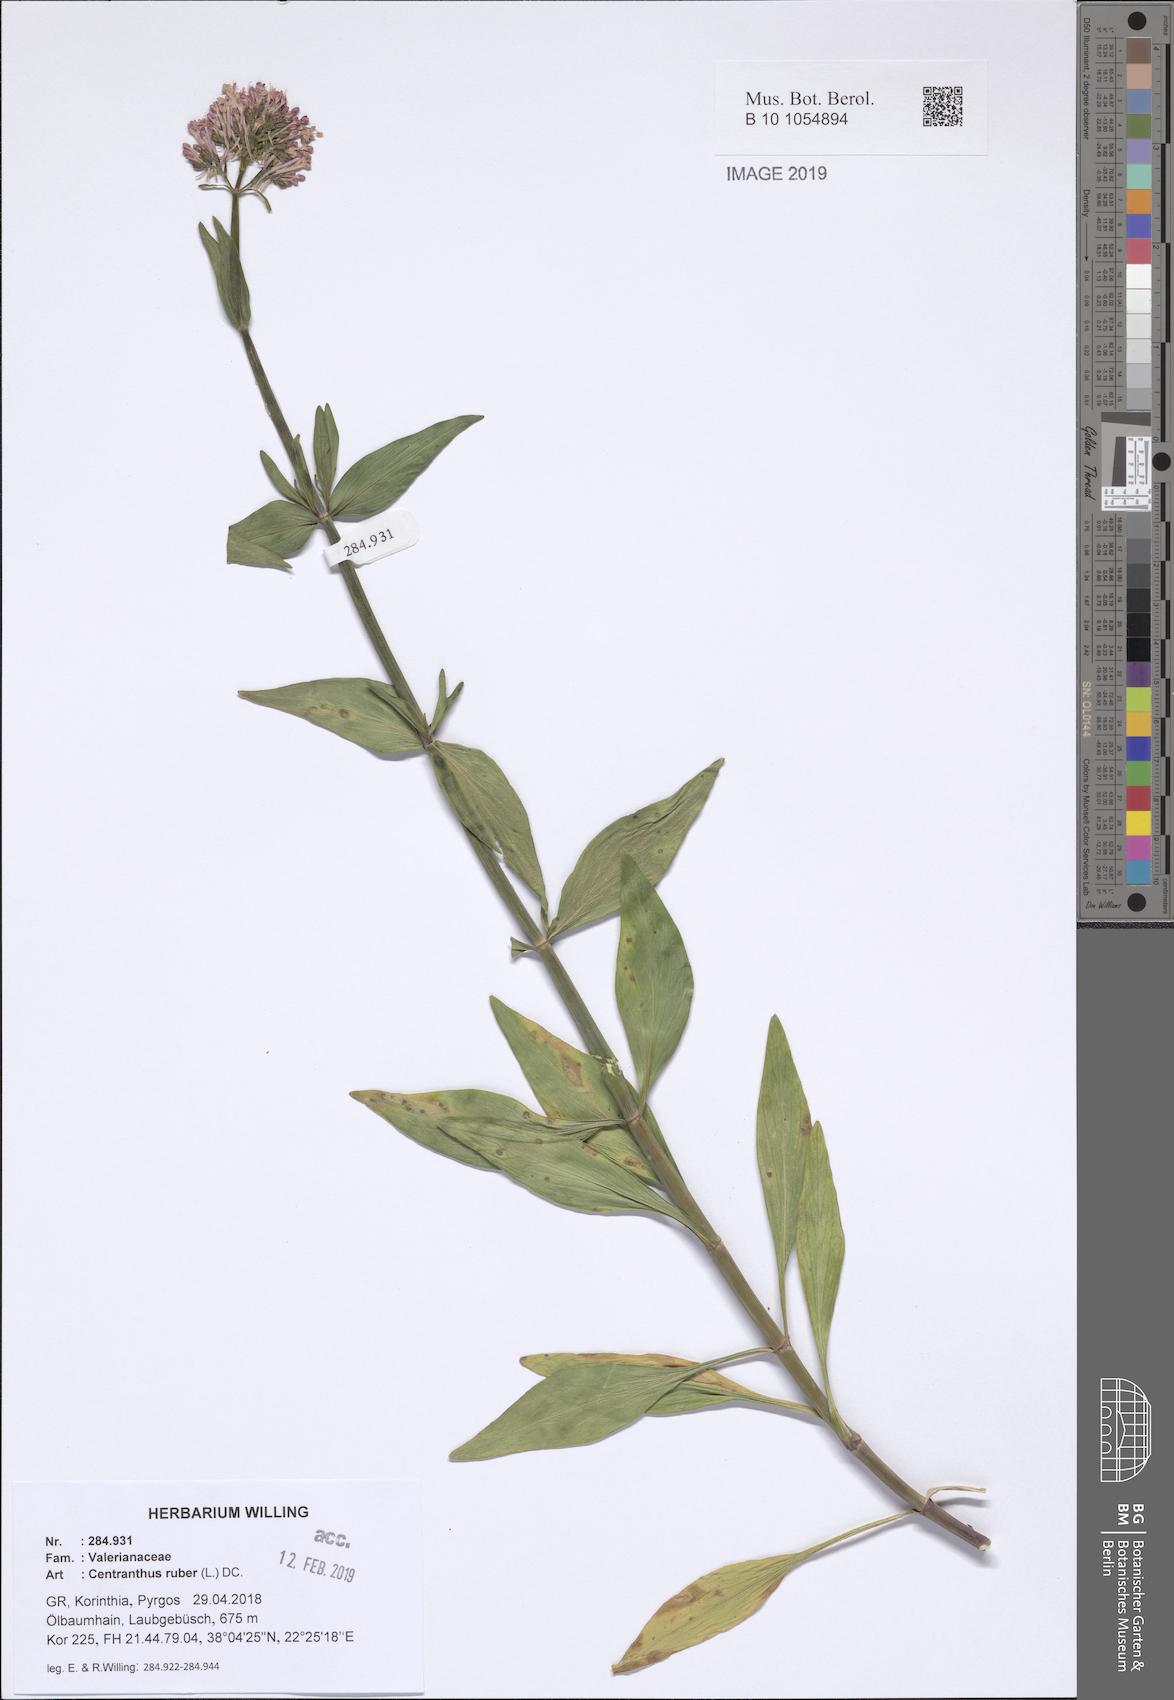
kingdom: Plantae
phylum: Tracheophyta
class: Magnoliopsida
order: Dipsacales
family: Caprifoliaceae
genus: Centranthus
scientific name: Centranthus ruber
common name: Red valerian
